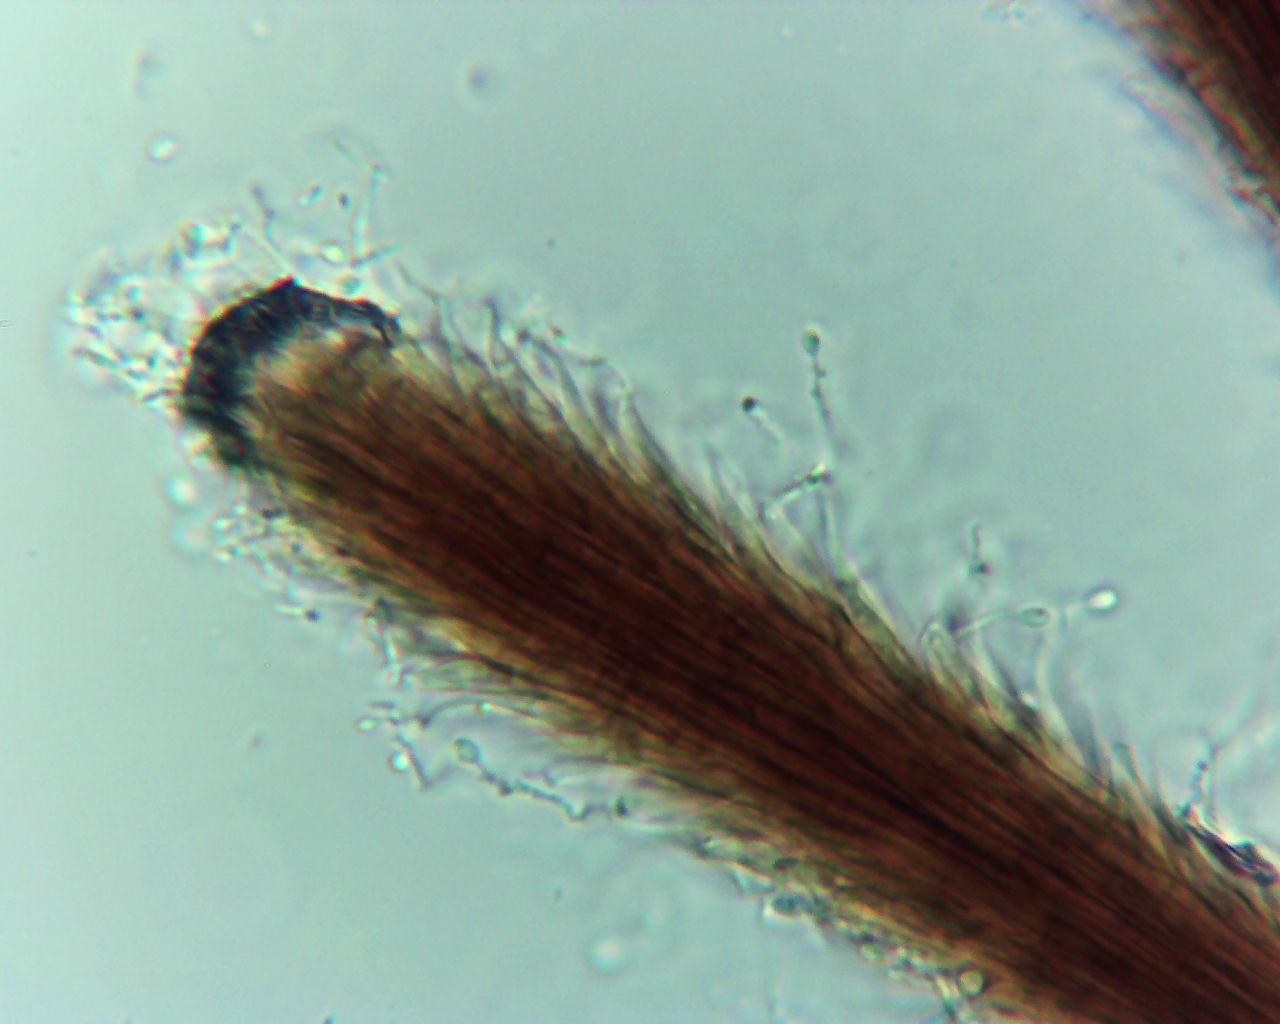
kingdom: Fungi
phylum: Ascomycota
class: Sordariomycetes
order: Xylariales
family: Diatrypaceae
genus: Phaeoisaria
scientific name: Phaeoisaria clavulata
